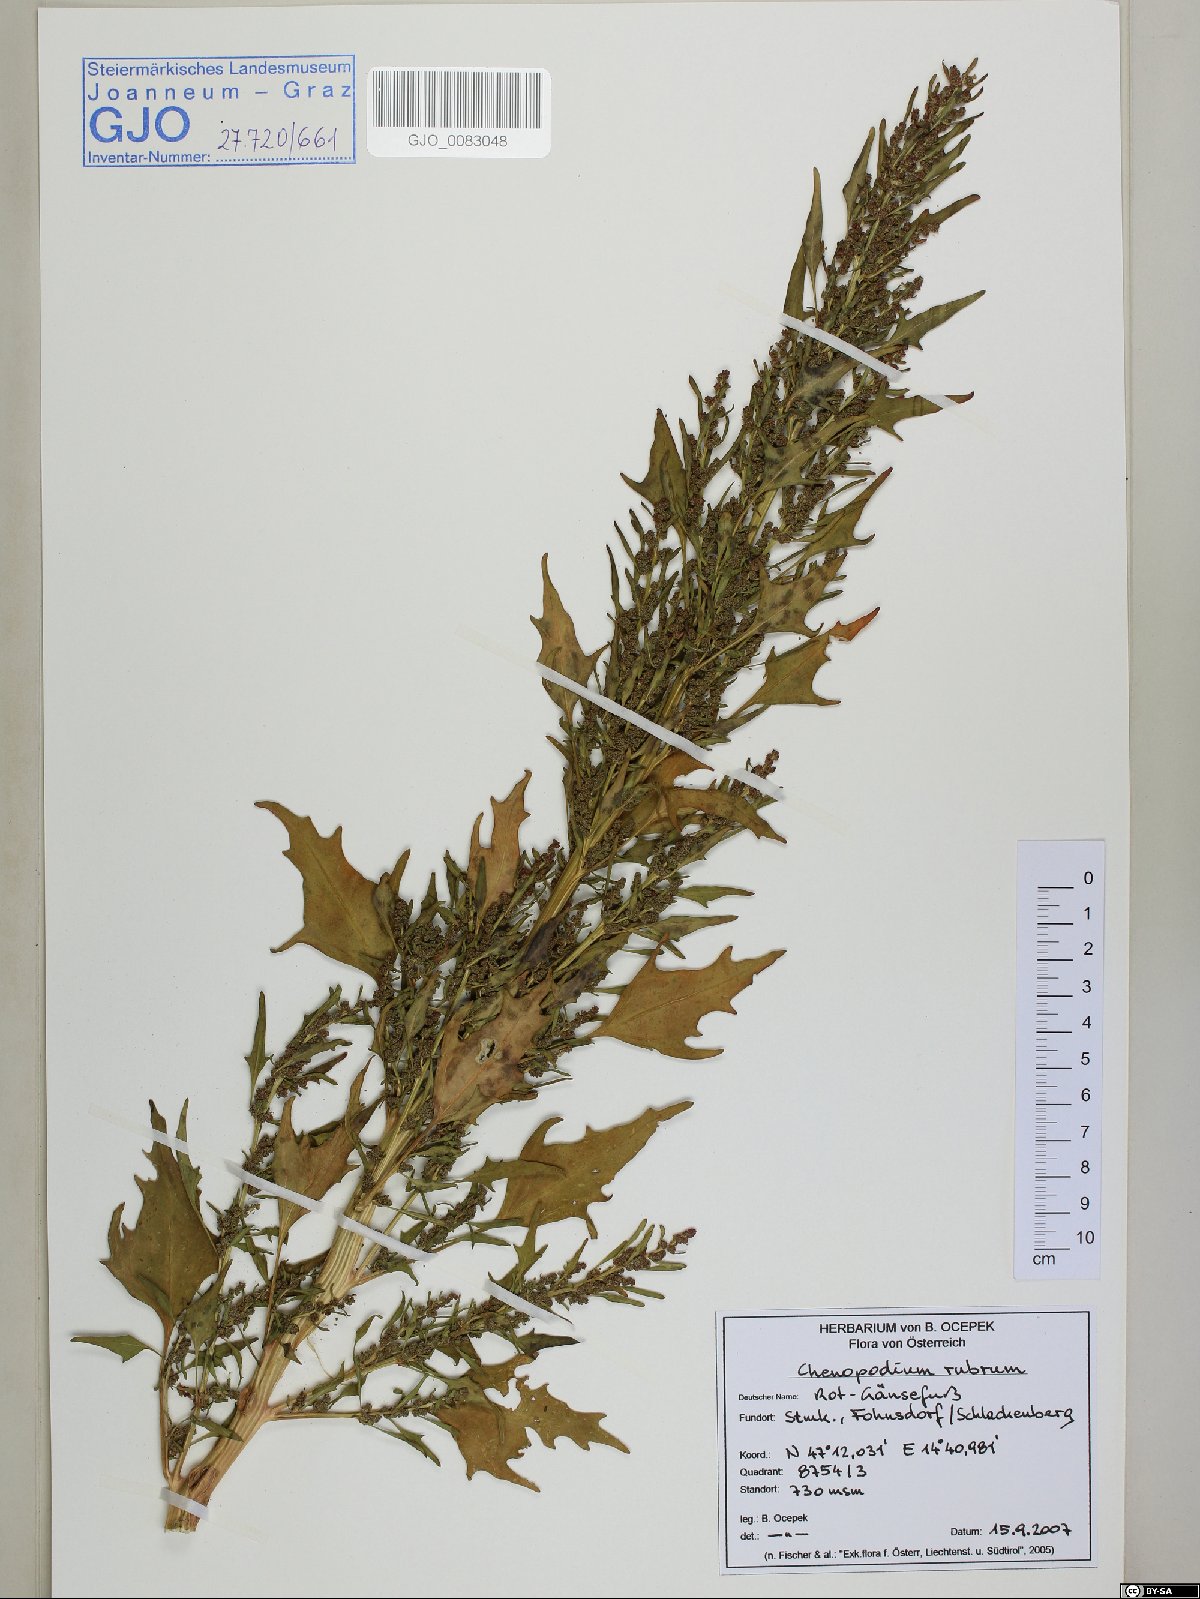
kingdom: Plantae
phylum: Tracheophyta
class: Magnoliopsida
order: Caryophyllales
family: Amaranthaceae
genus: Oxybasis
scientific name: Oxybasis rubra
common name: Red goosefoot
